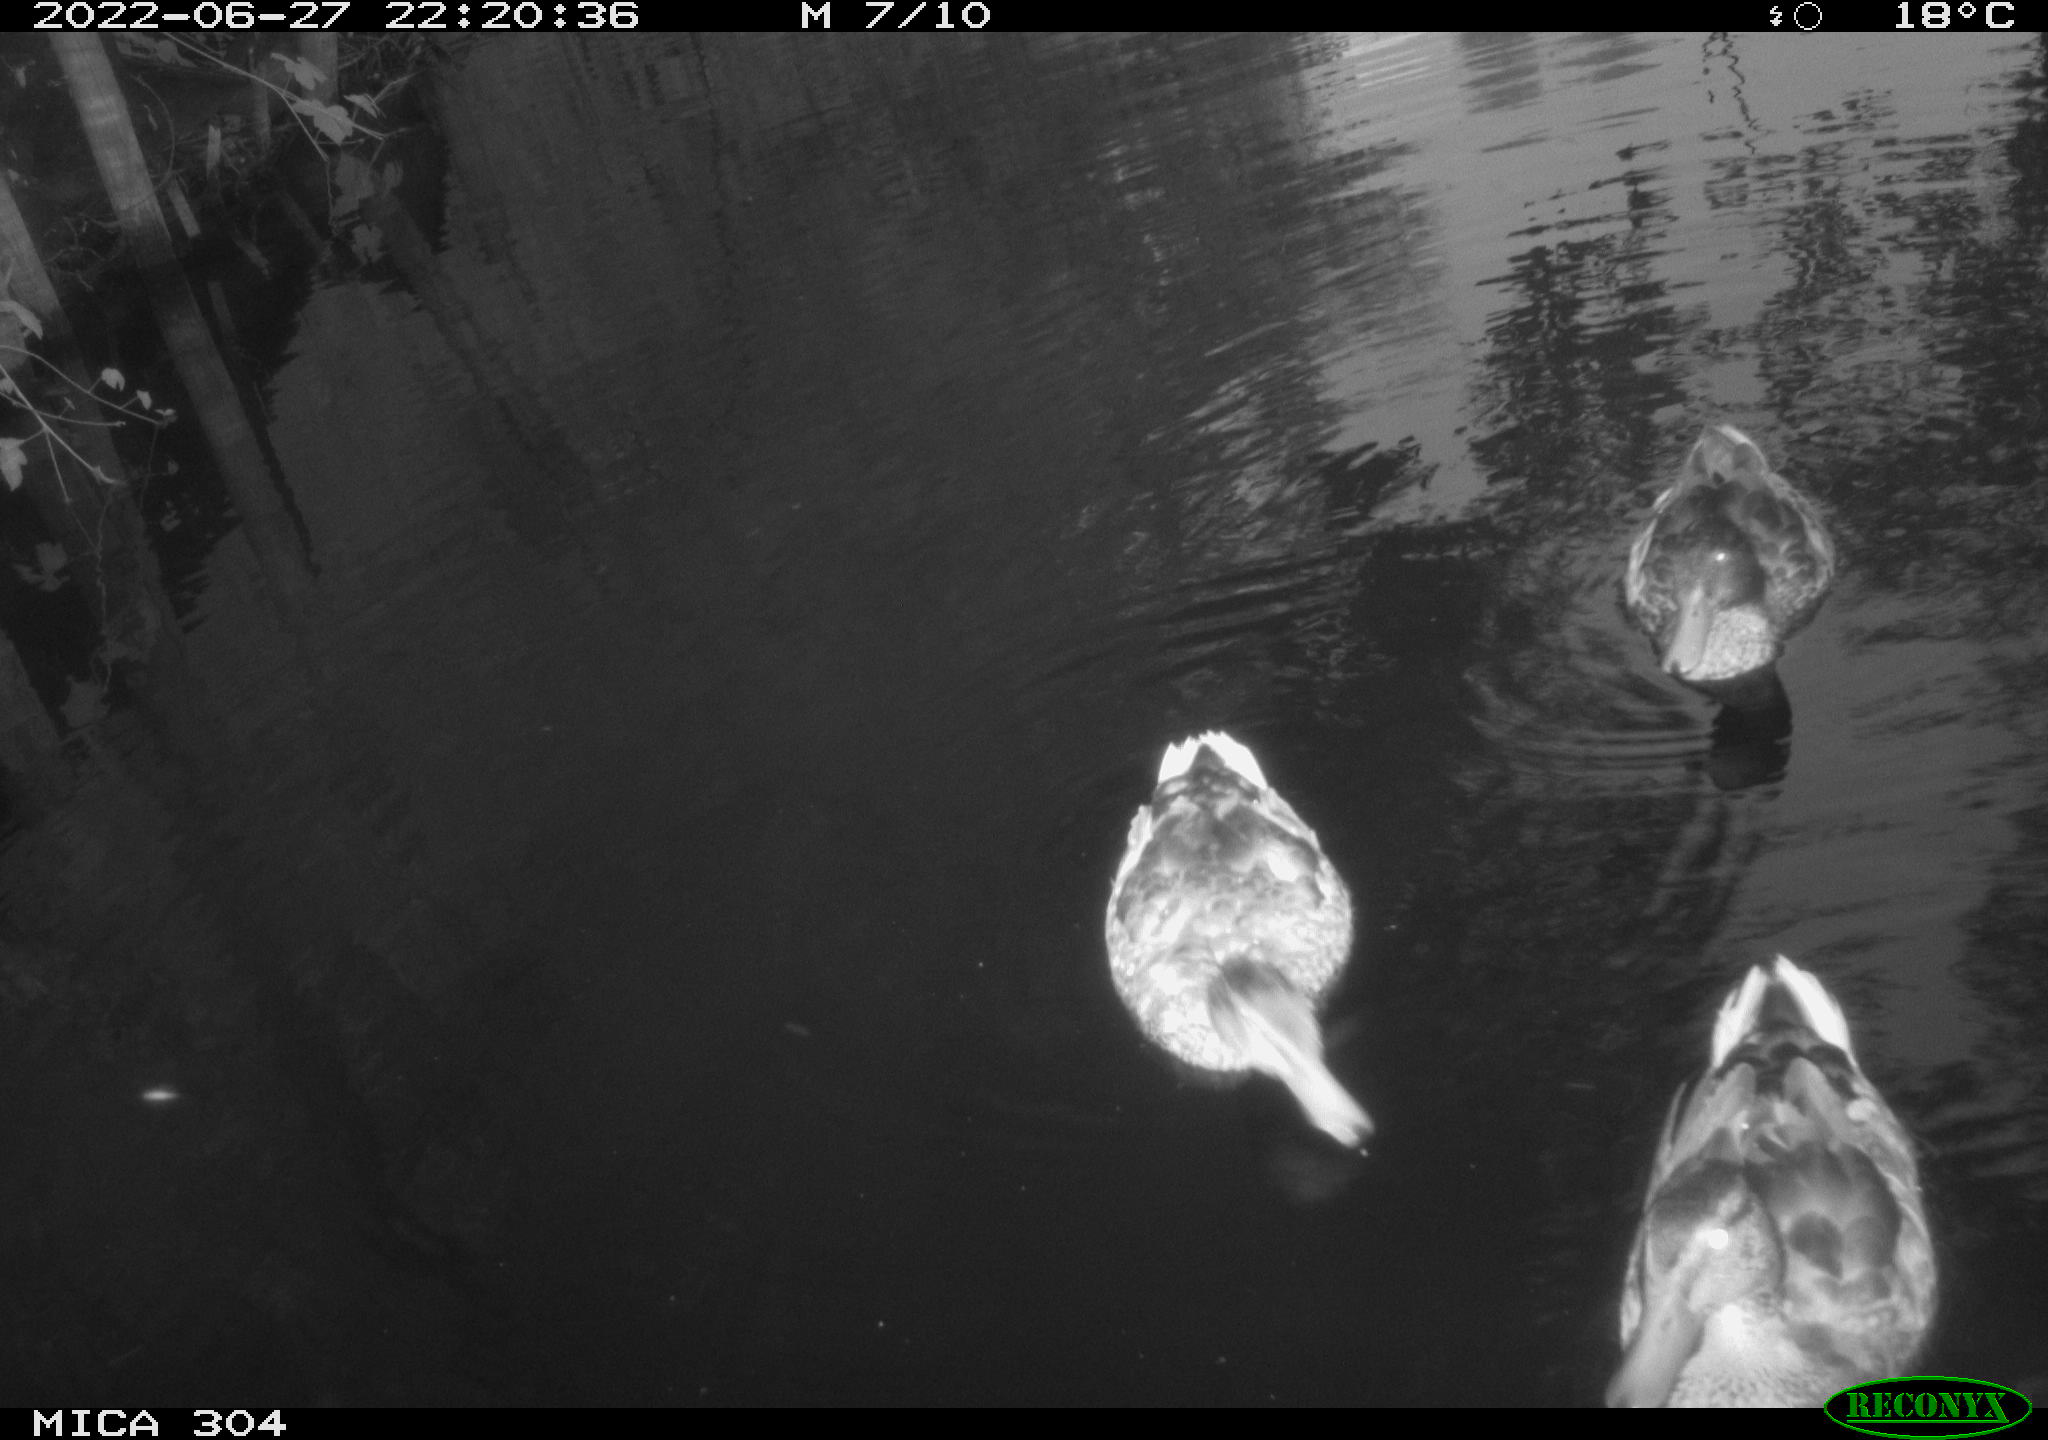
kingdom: Animalia
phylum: Chordata
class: Aves
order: Anseriformes
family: Anatidae
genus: Anas
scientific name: Anas platyrhynchos
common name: Mallard
